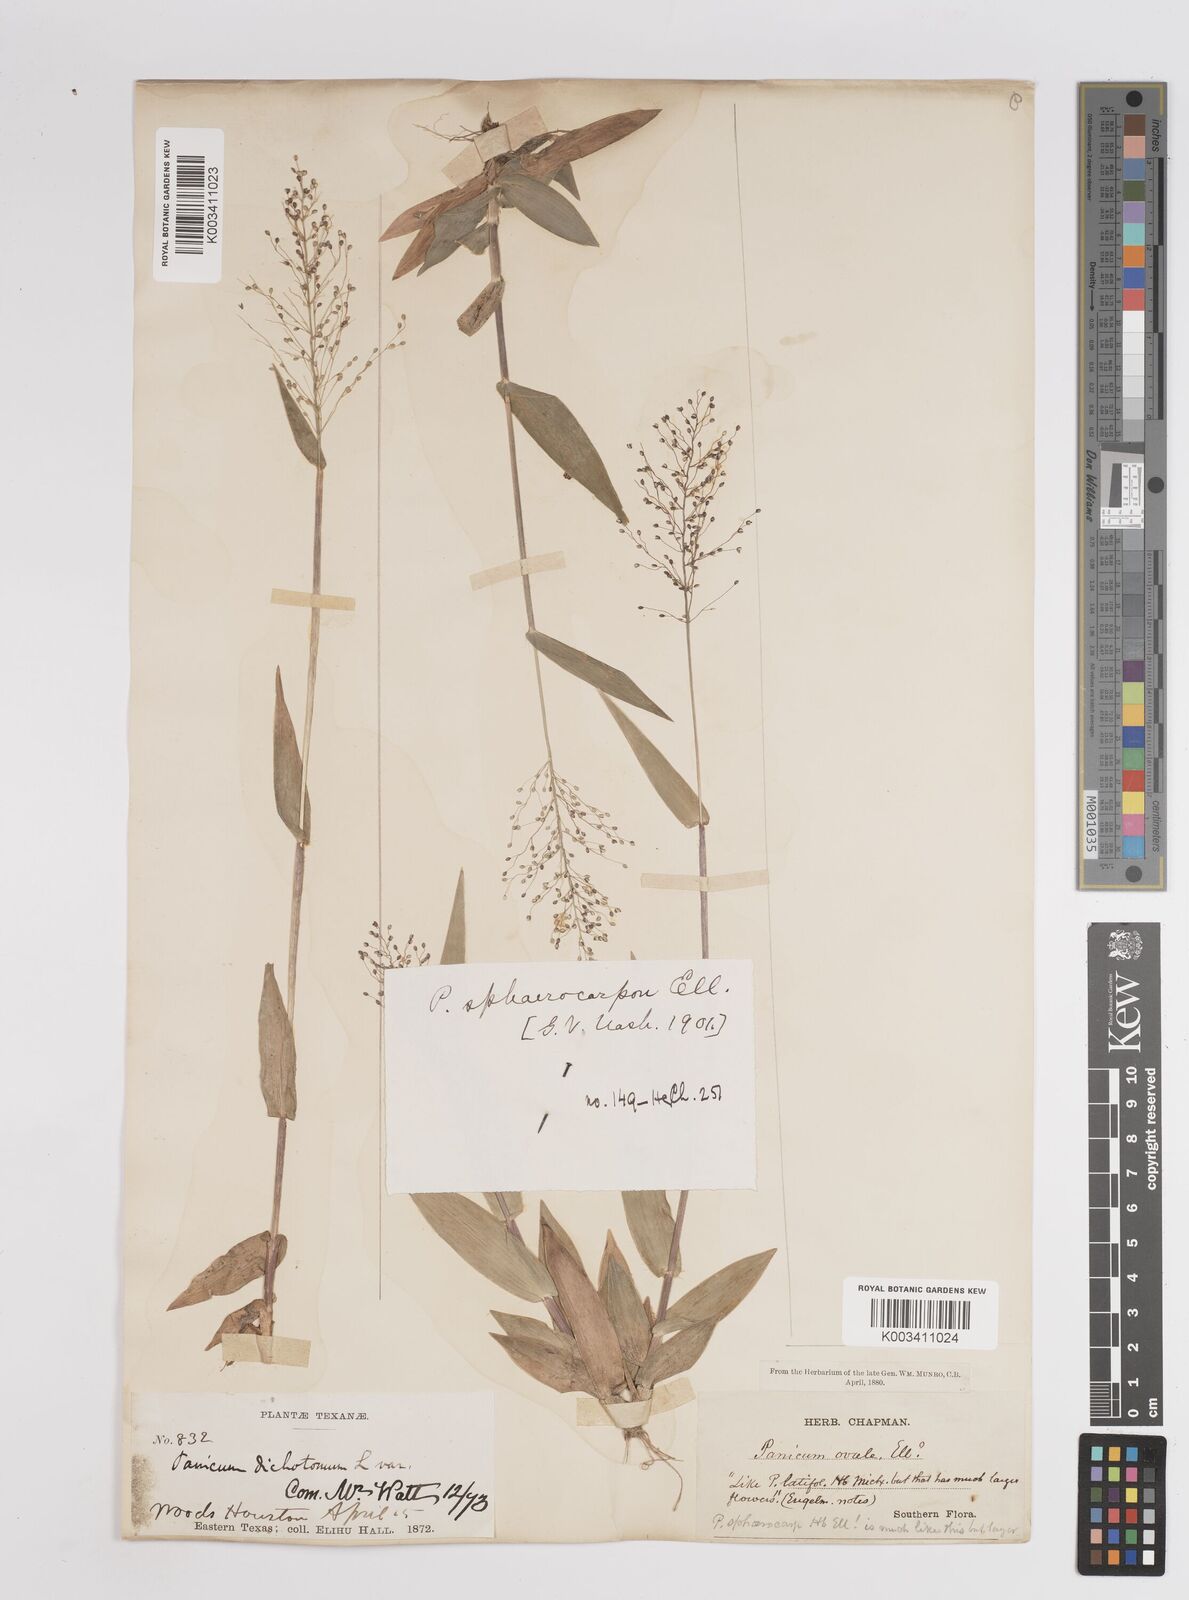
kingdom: Plantae
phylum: Tracheophyta
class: Liliopsida
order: Poales
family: Poaceae
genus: Setaria
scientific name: Setaria tenax
